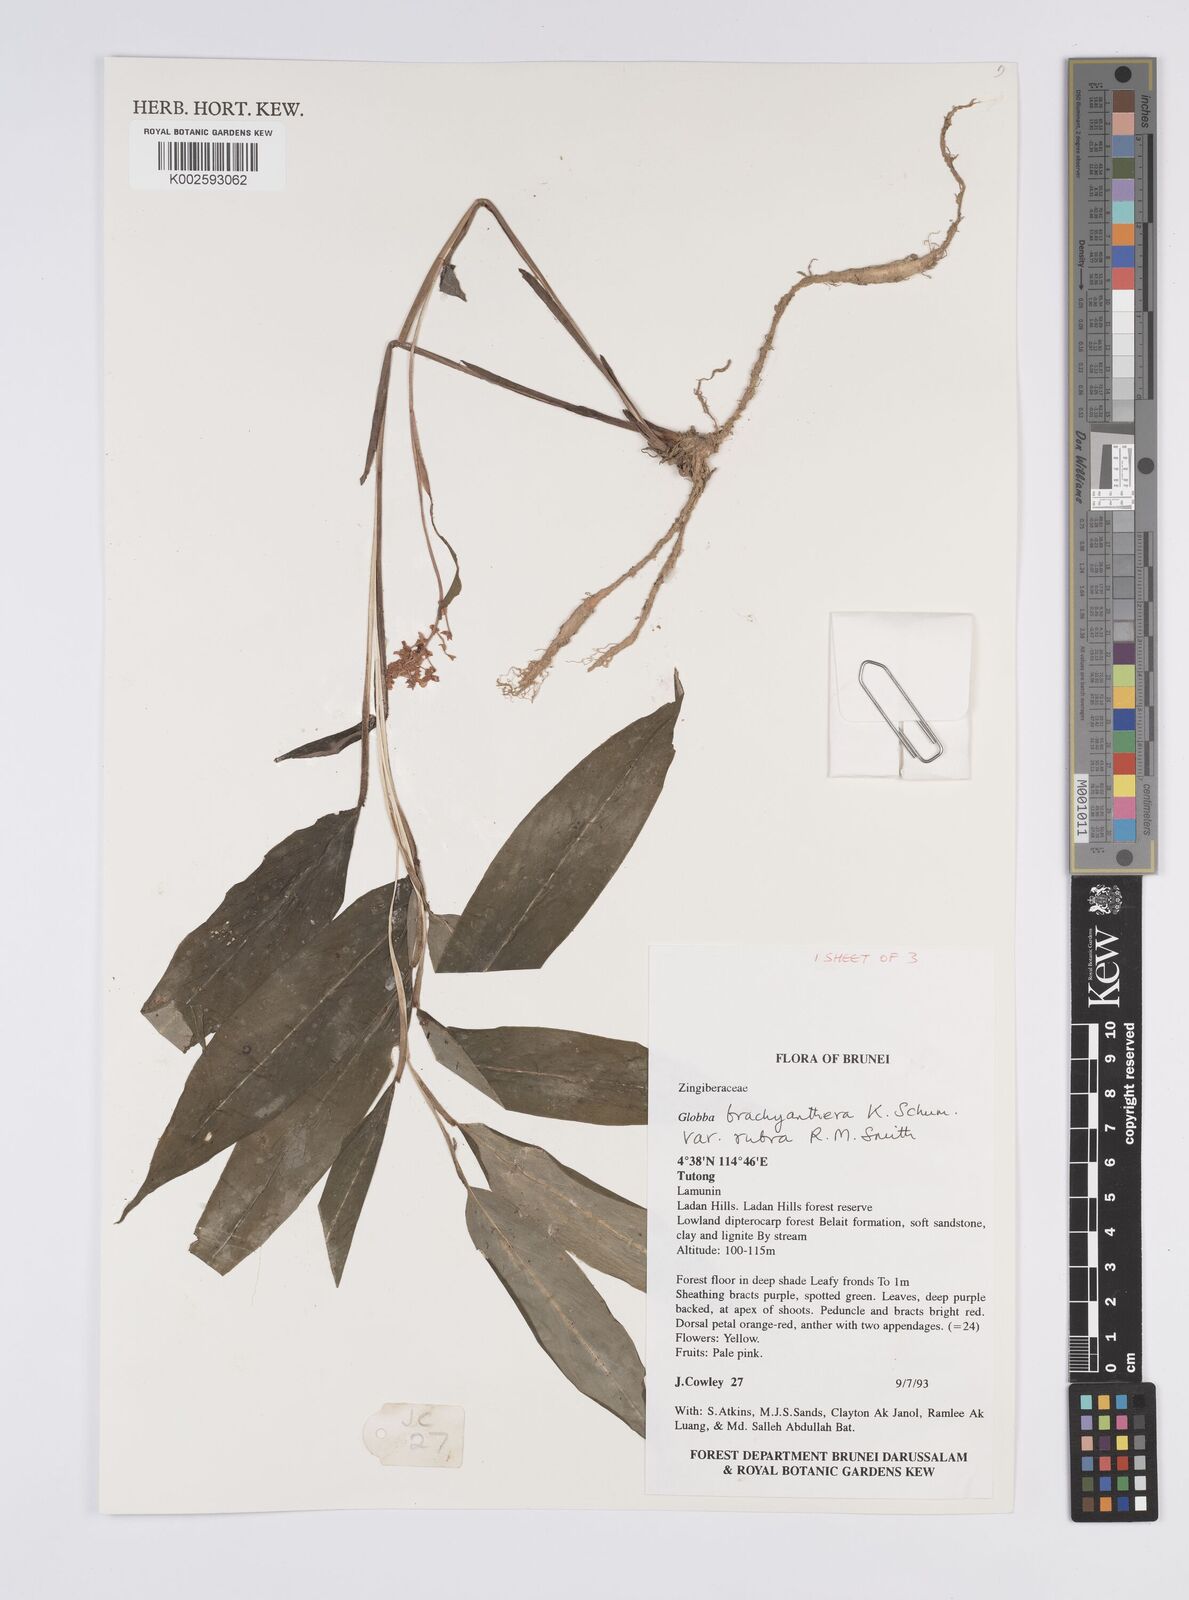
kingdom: Plantae
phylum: Tracheophyta
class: Liliopsida
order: Zingiberales
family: Zingiberaceae
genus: Globba
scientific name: Globba brachyanthera
